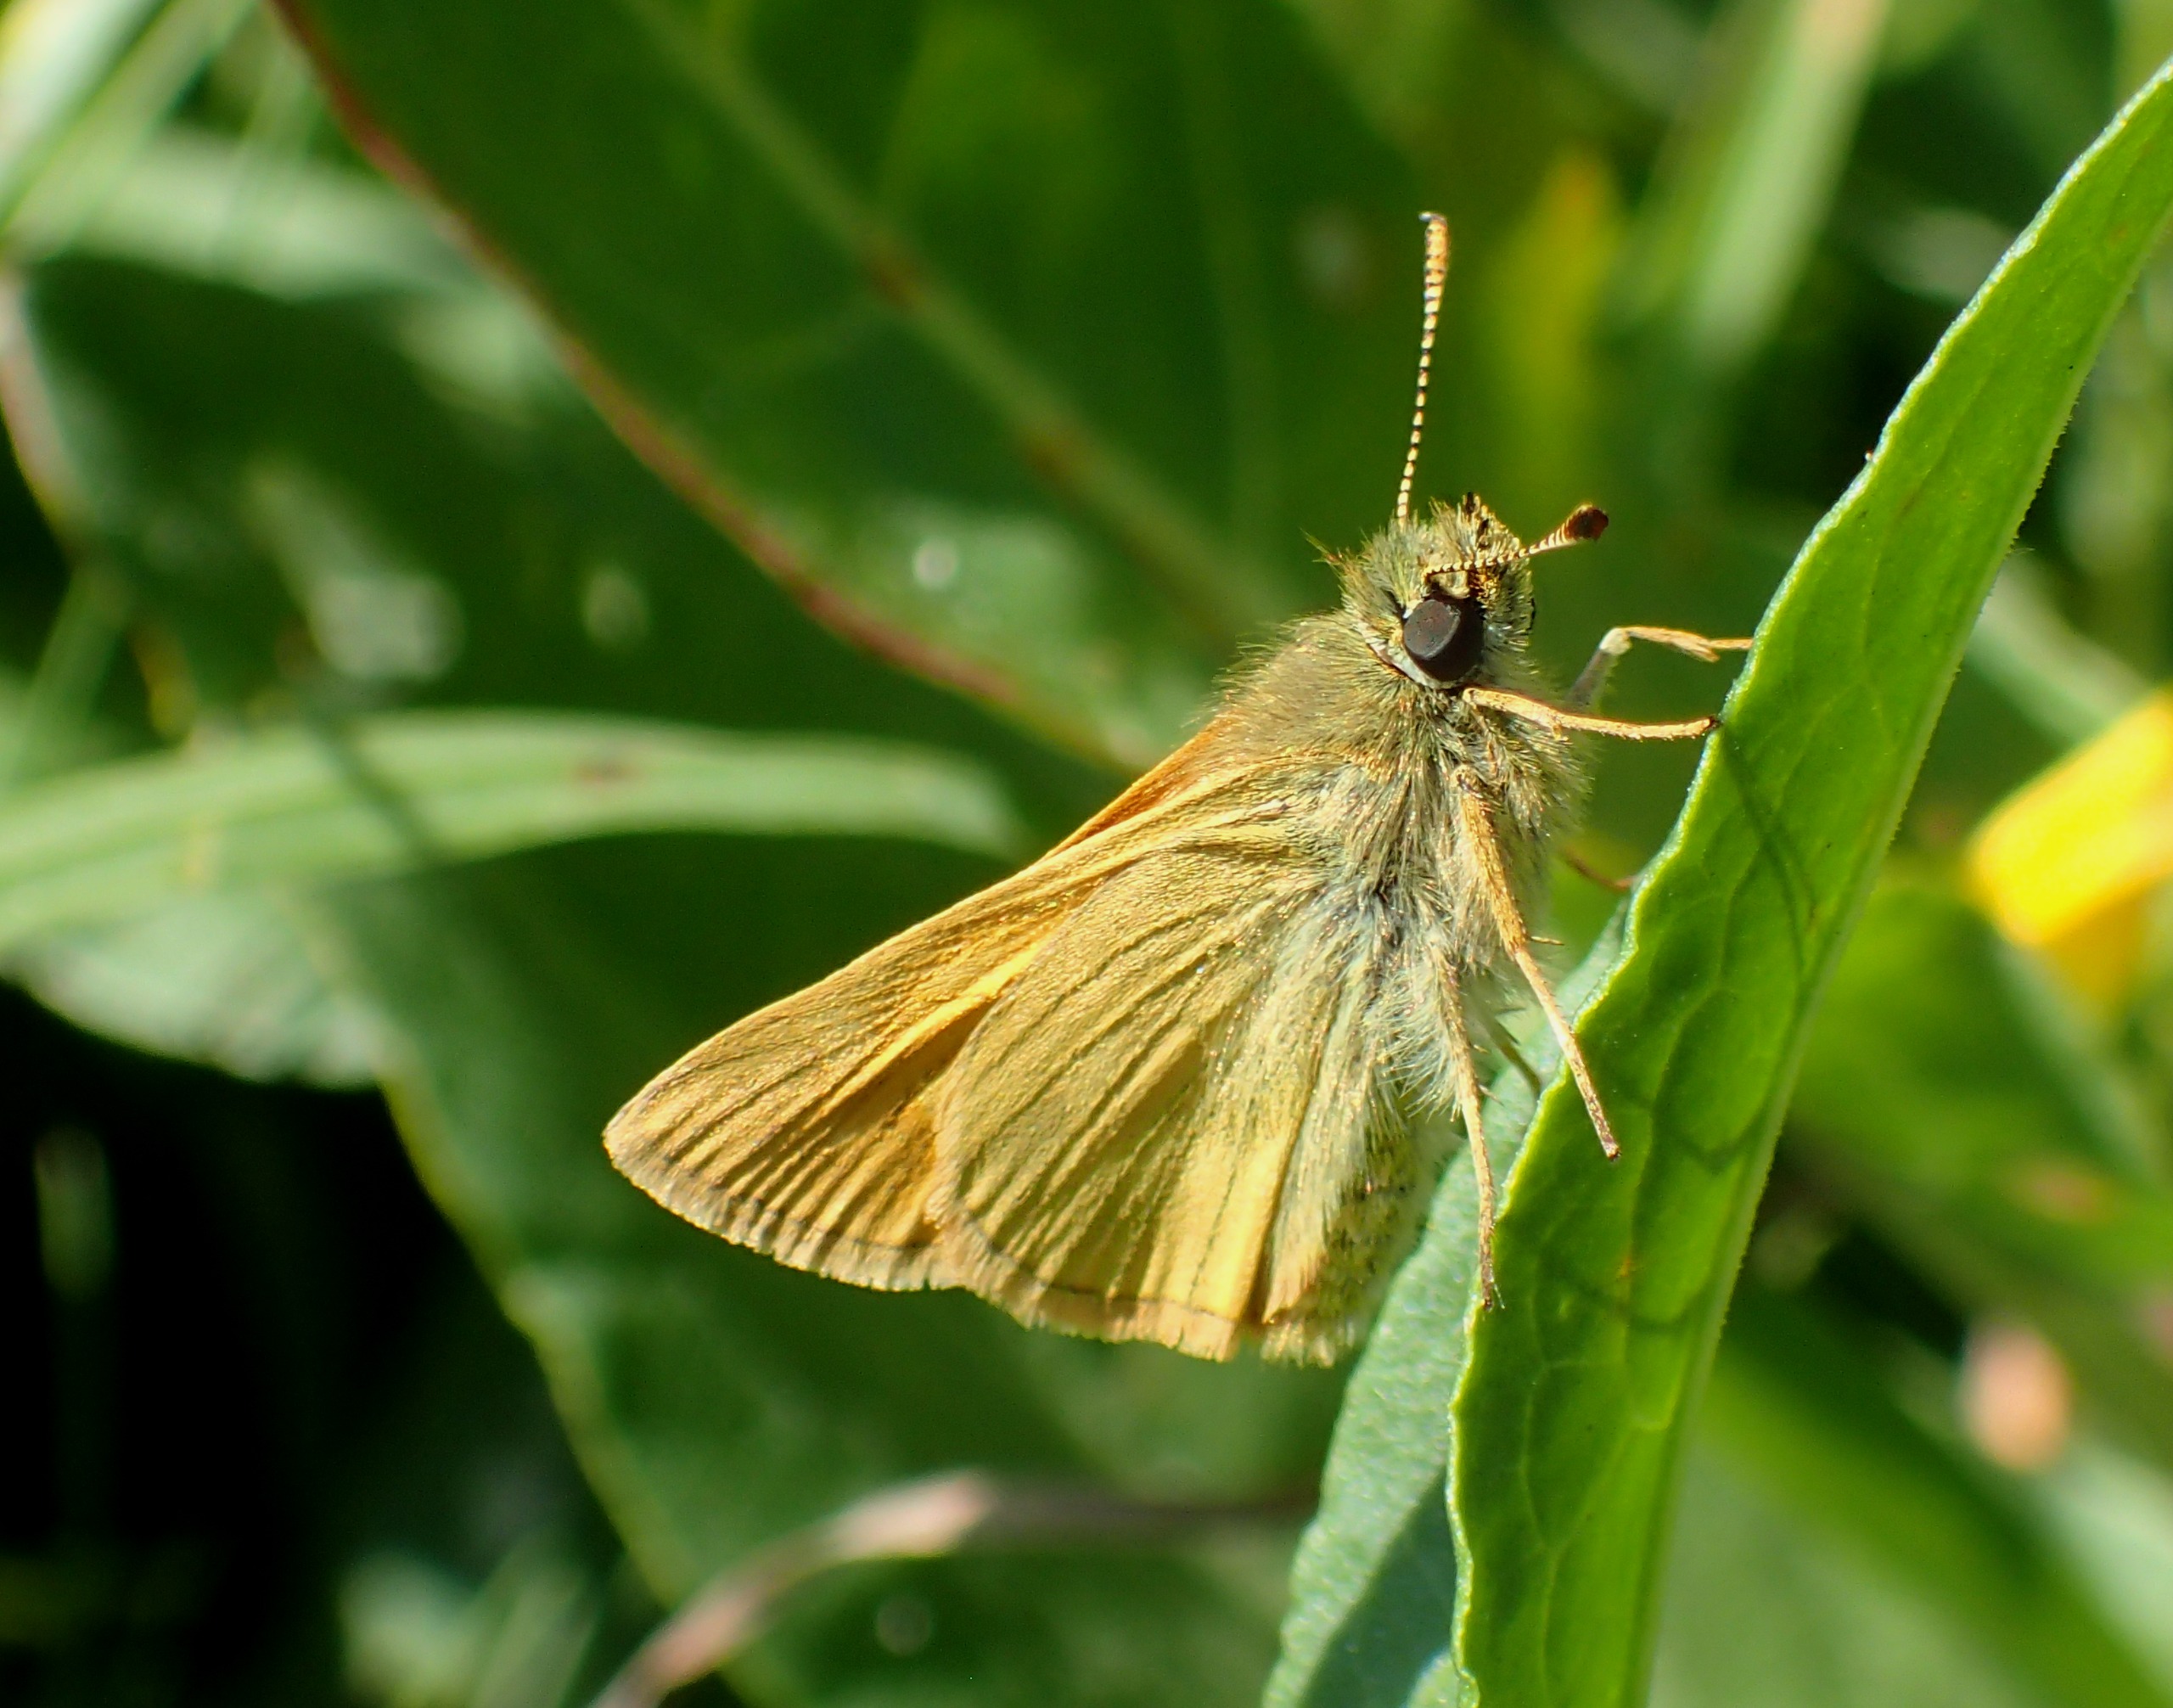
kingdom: Animalia
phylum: Arthropoda
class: Insecta
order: Lepidoptera
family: Hesperiidae
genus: Ochlodes
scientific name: Ochlodes venata
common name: Stor bredpande
